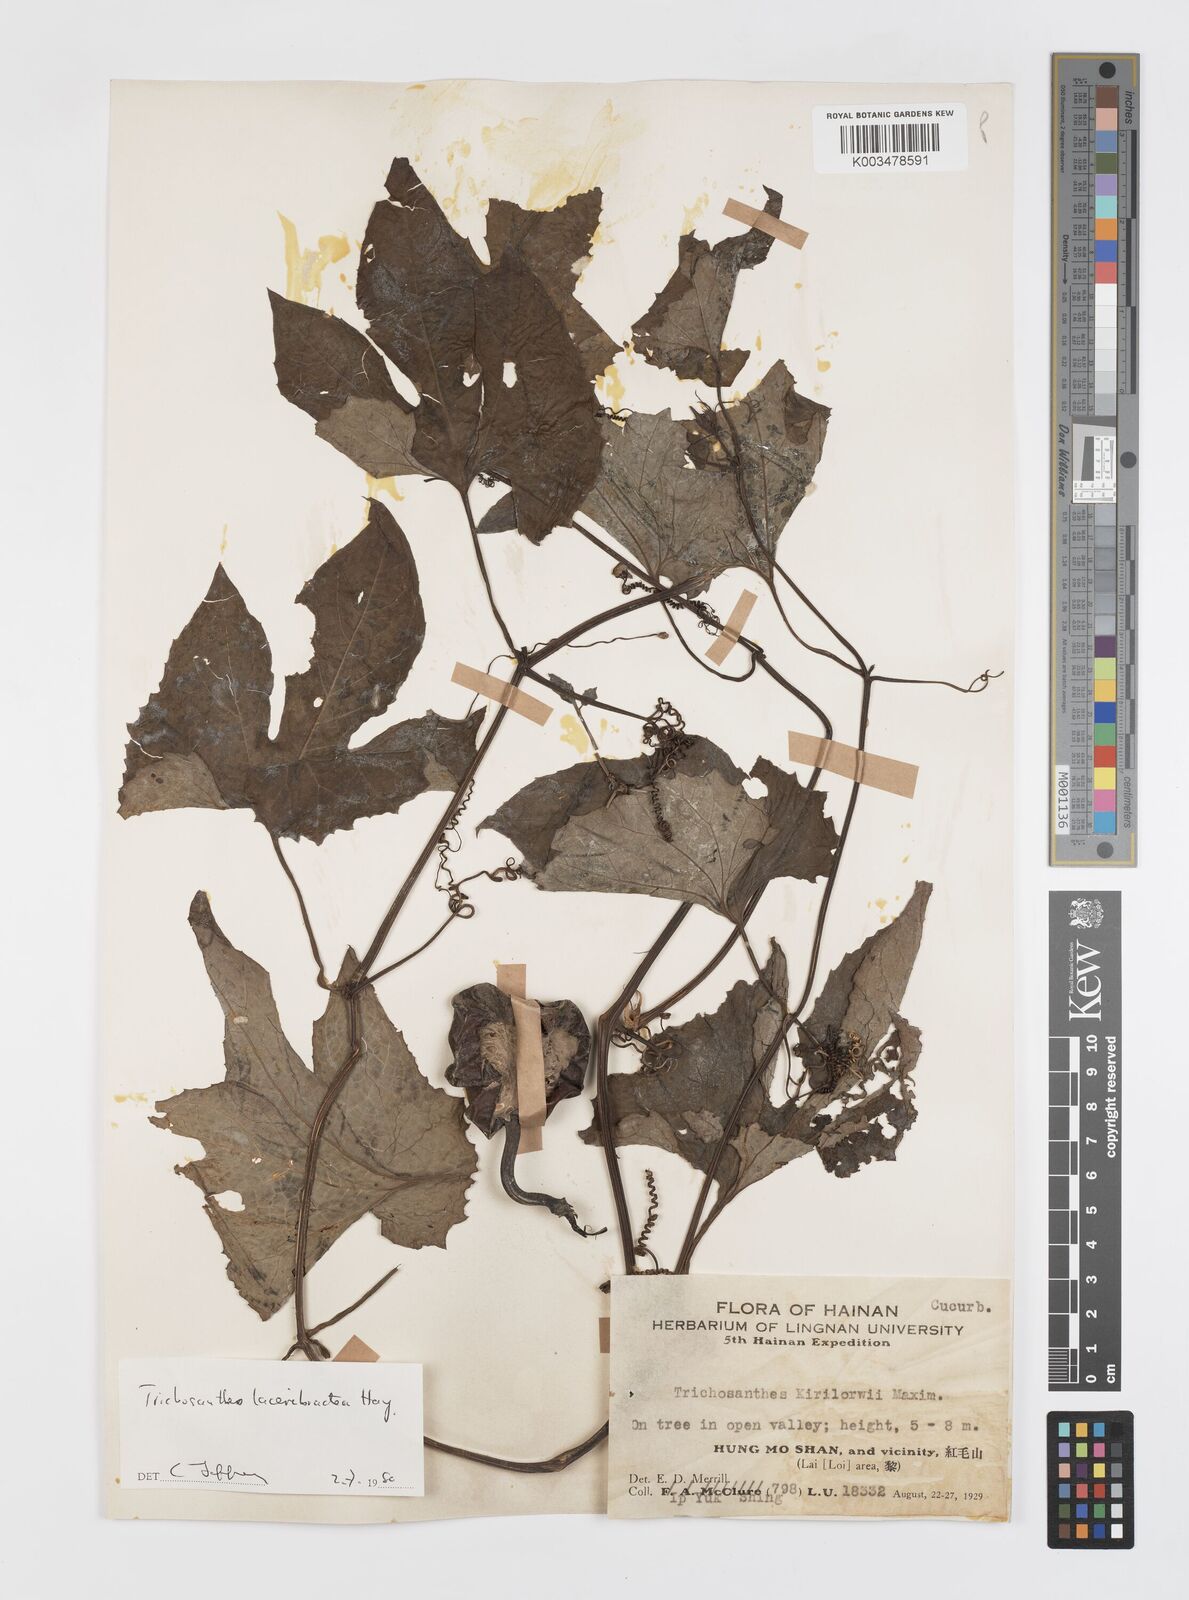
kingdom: Plantae
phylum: Tracheophyta
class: Magnoliopsida
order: Cucurbitales
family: Cucurbitaceae
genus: Trichosanthes
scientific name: Trichosanthes laceribractea
